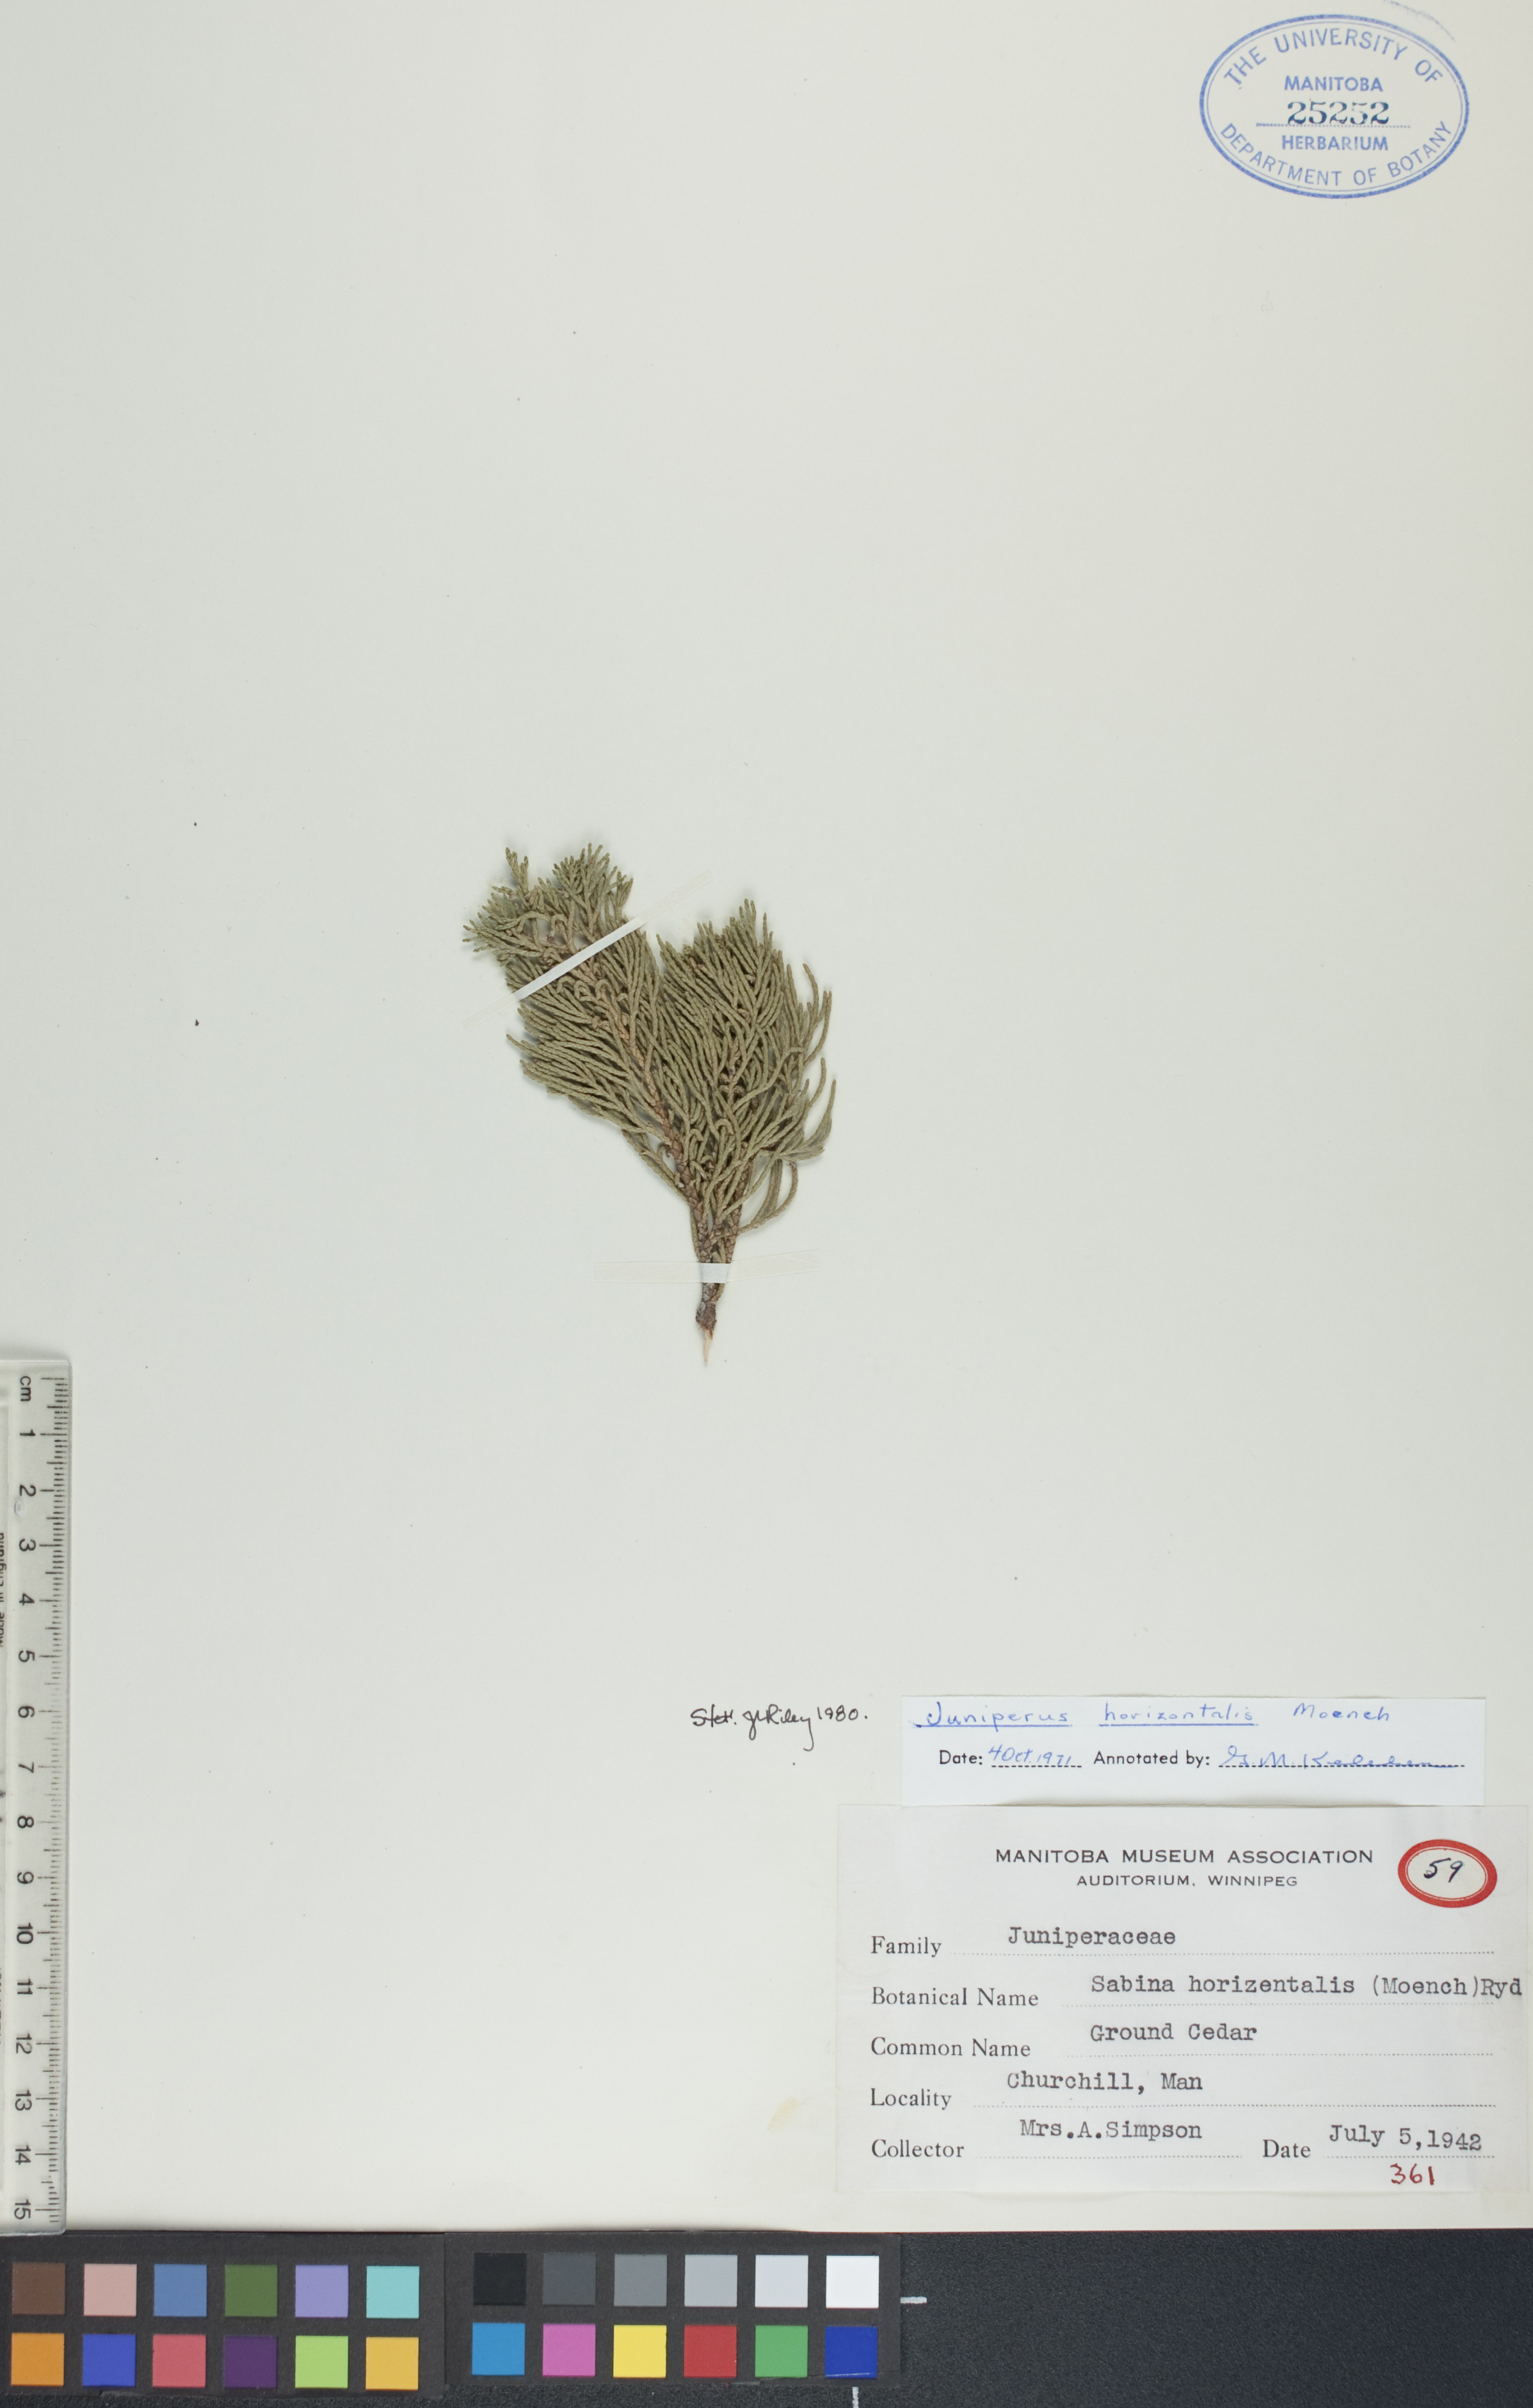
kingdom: Plantae
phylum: Tracheophyta
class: Pinopsida
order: Pinales
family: Cupressaceae
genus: Juniperus
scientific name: Juniperus horizontalis
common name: Creeping juniper
